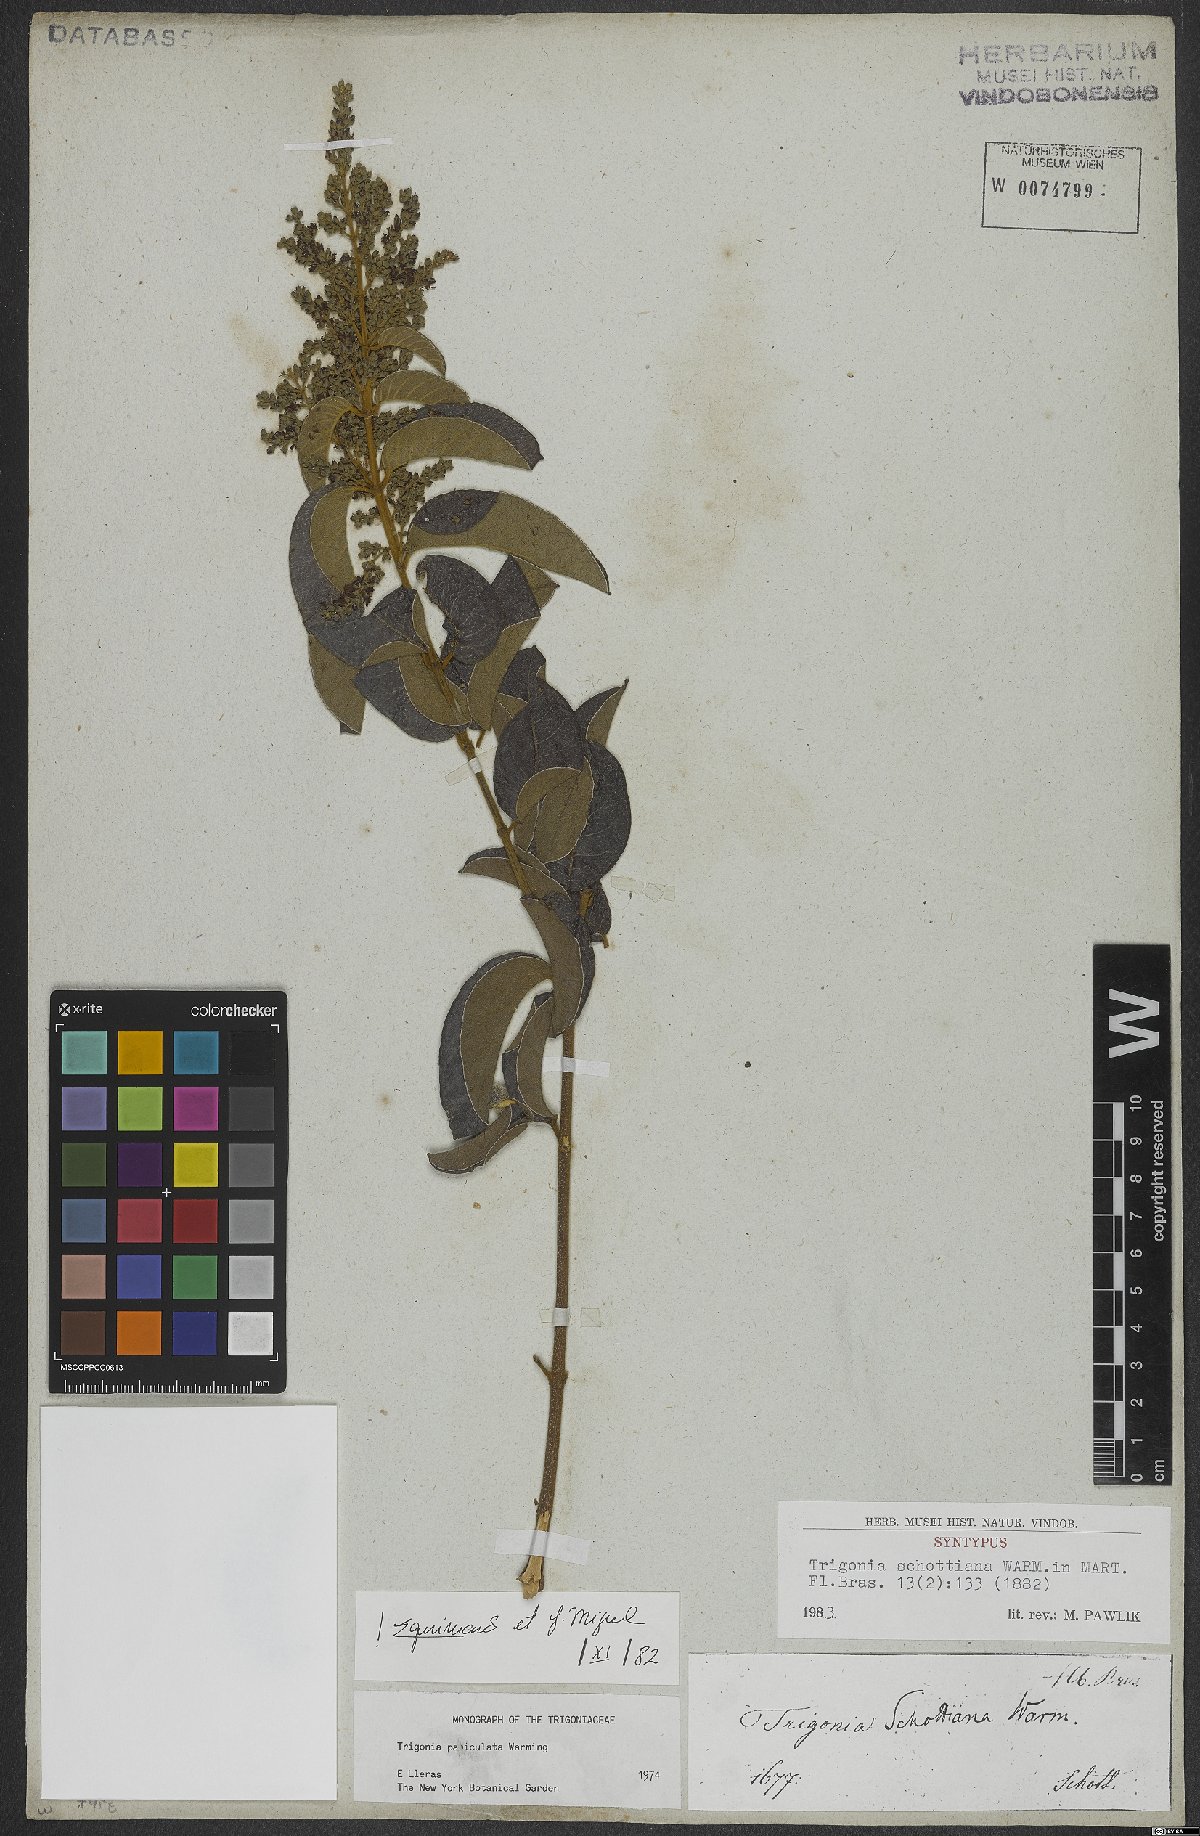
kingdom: Plantae
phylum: Tracheophyta
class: Magnoliopsida
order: Malpighiales
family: Trigoniaceae
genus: Trigonia
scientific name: Trigonia paniculata
